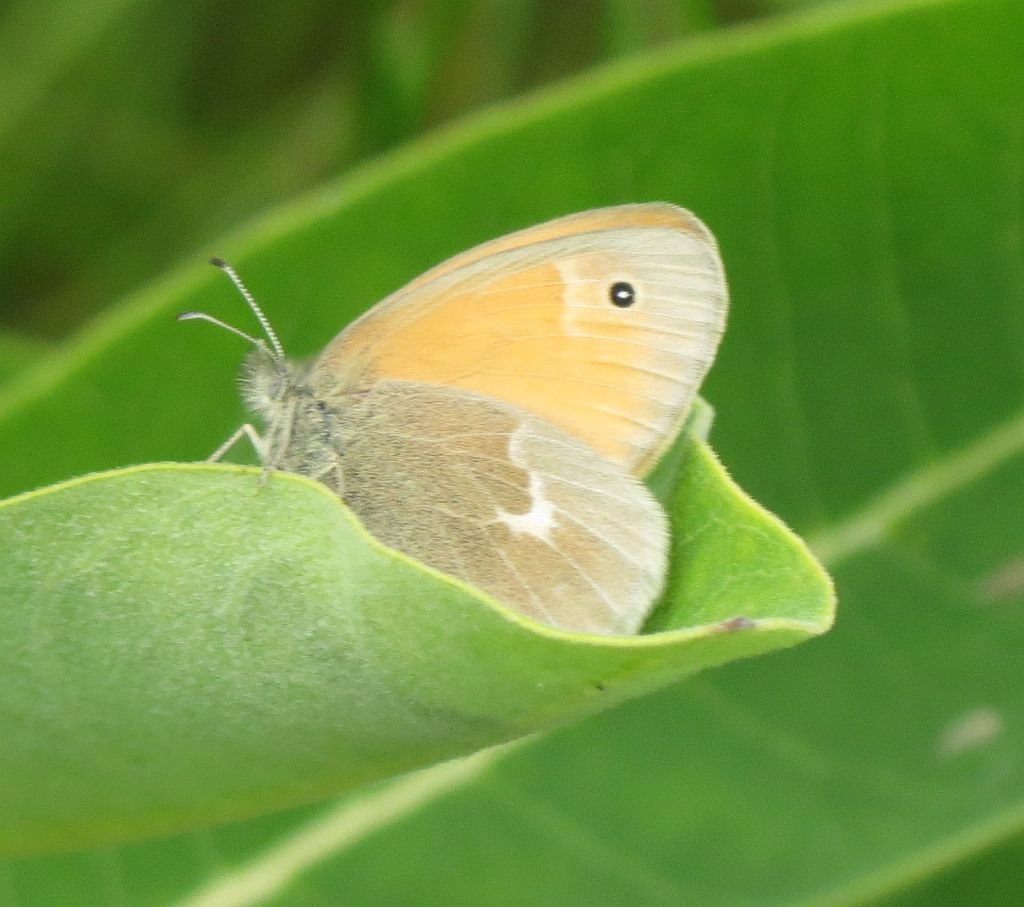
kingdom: Animalia
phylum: Arthropoda
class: Insecta
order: Lepidoptera
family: Nymphalidae
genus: Coenonympha
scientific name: Coenonympha tullia
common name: Large Heath
